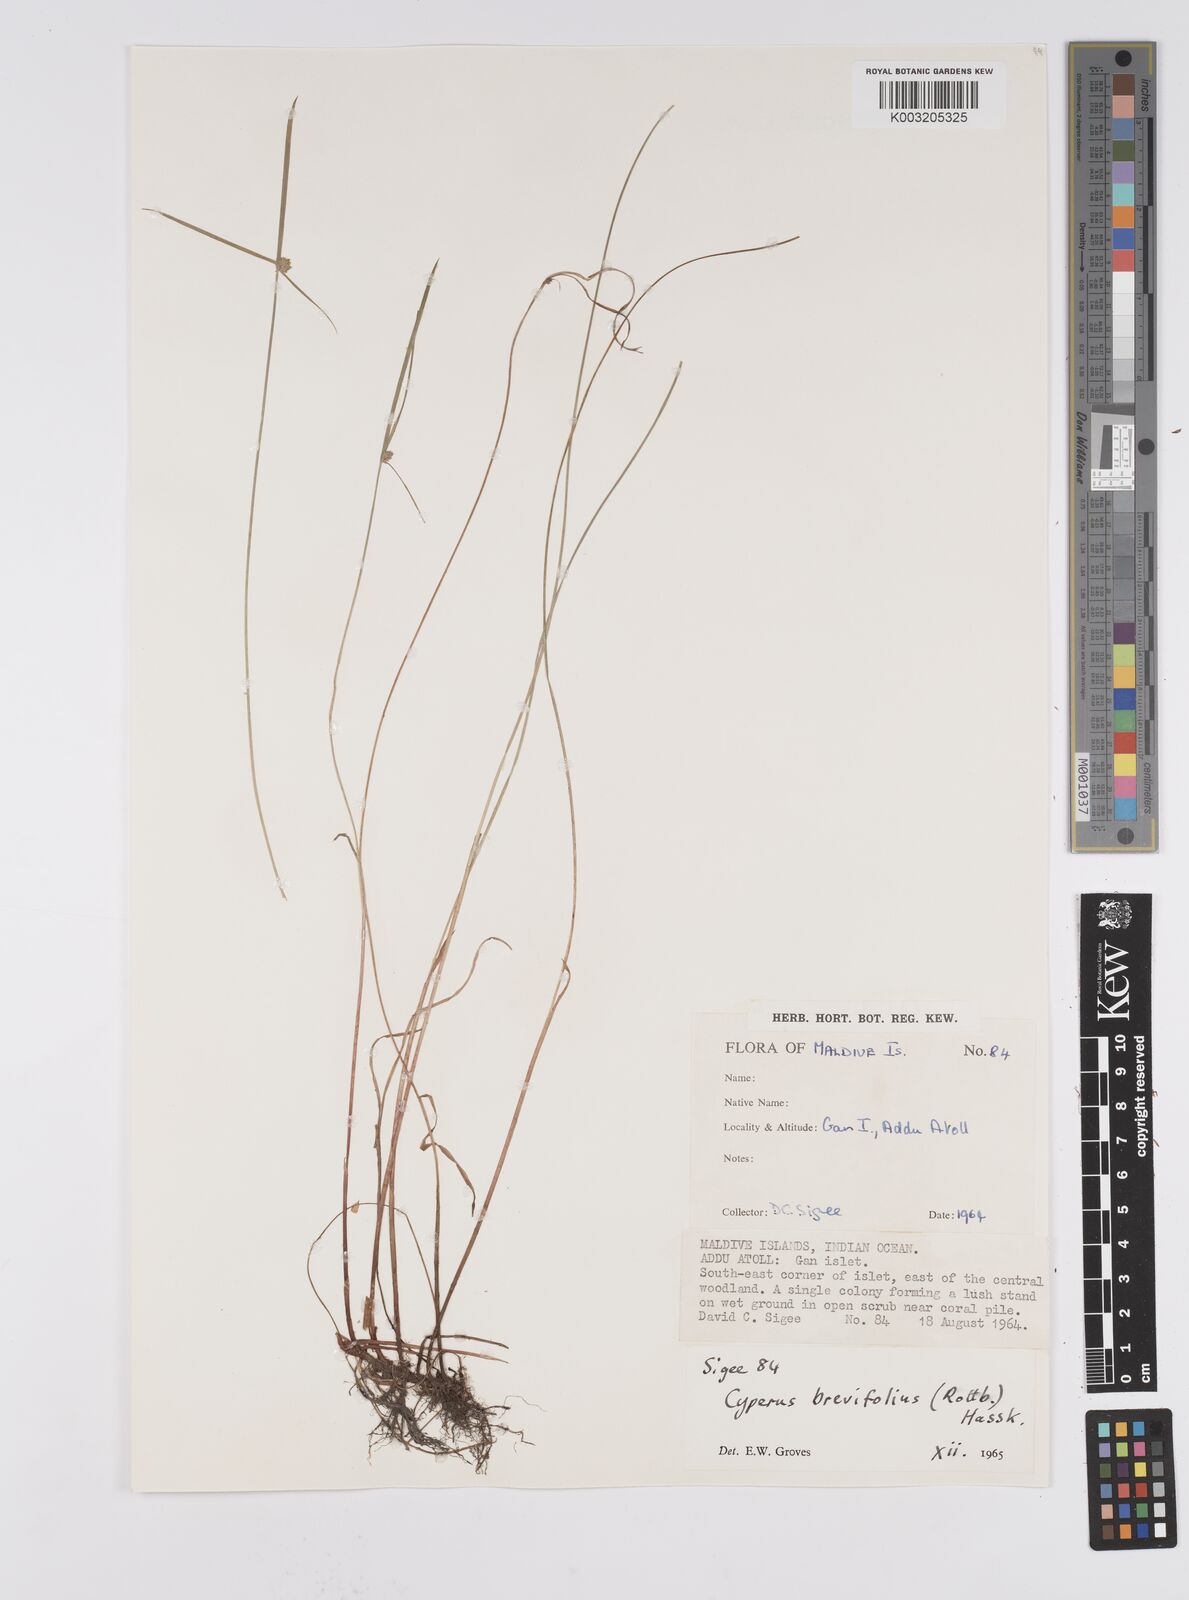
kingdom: Plantae
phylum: Tracheophyta
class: Liliopsida
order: Poales
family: Cyperaceae
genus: Cyperus
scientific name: Cyperus brevifolius
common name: Globe kyllinga
